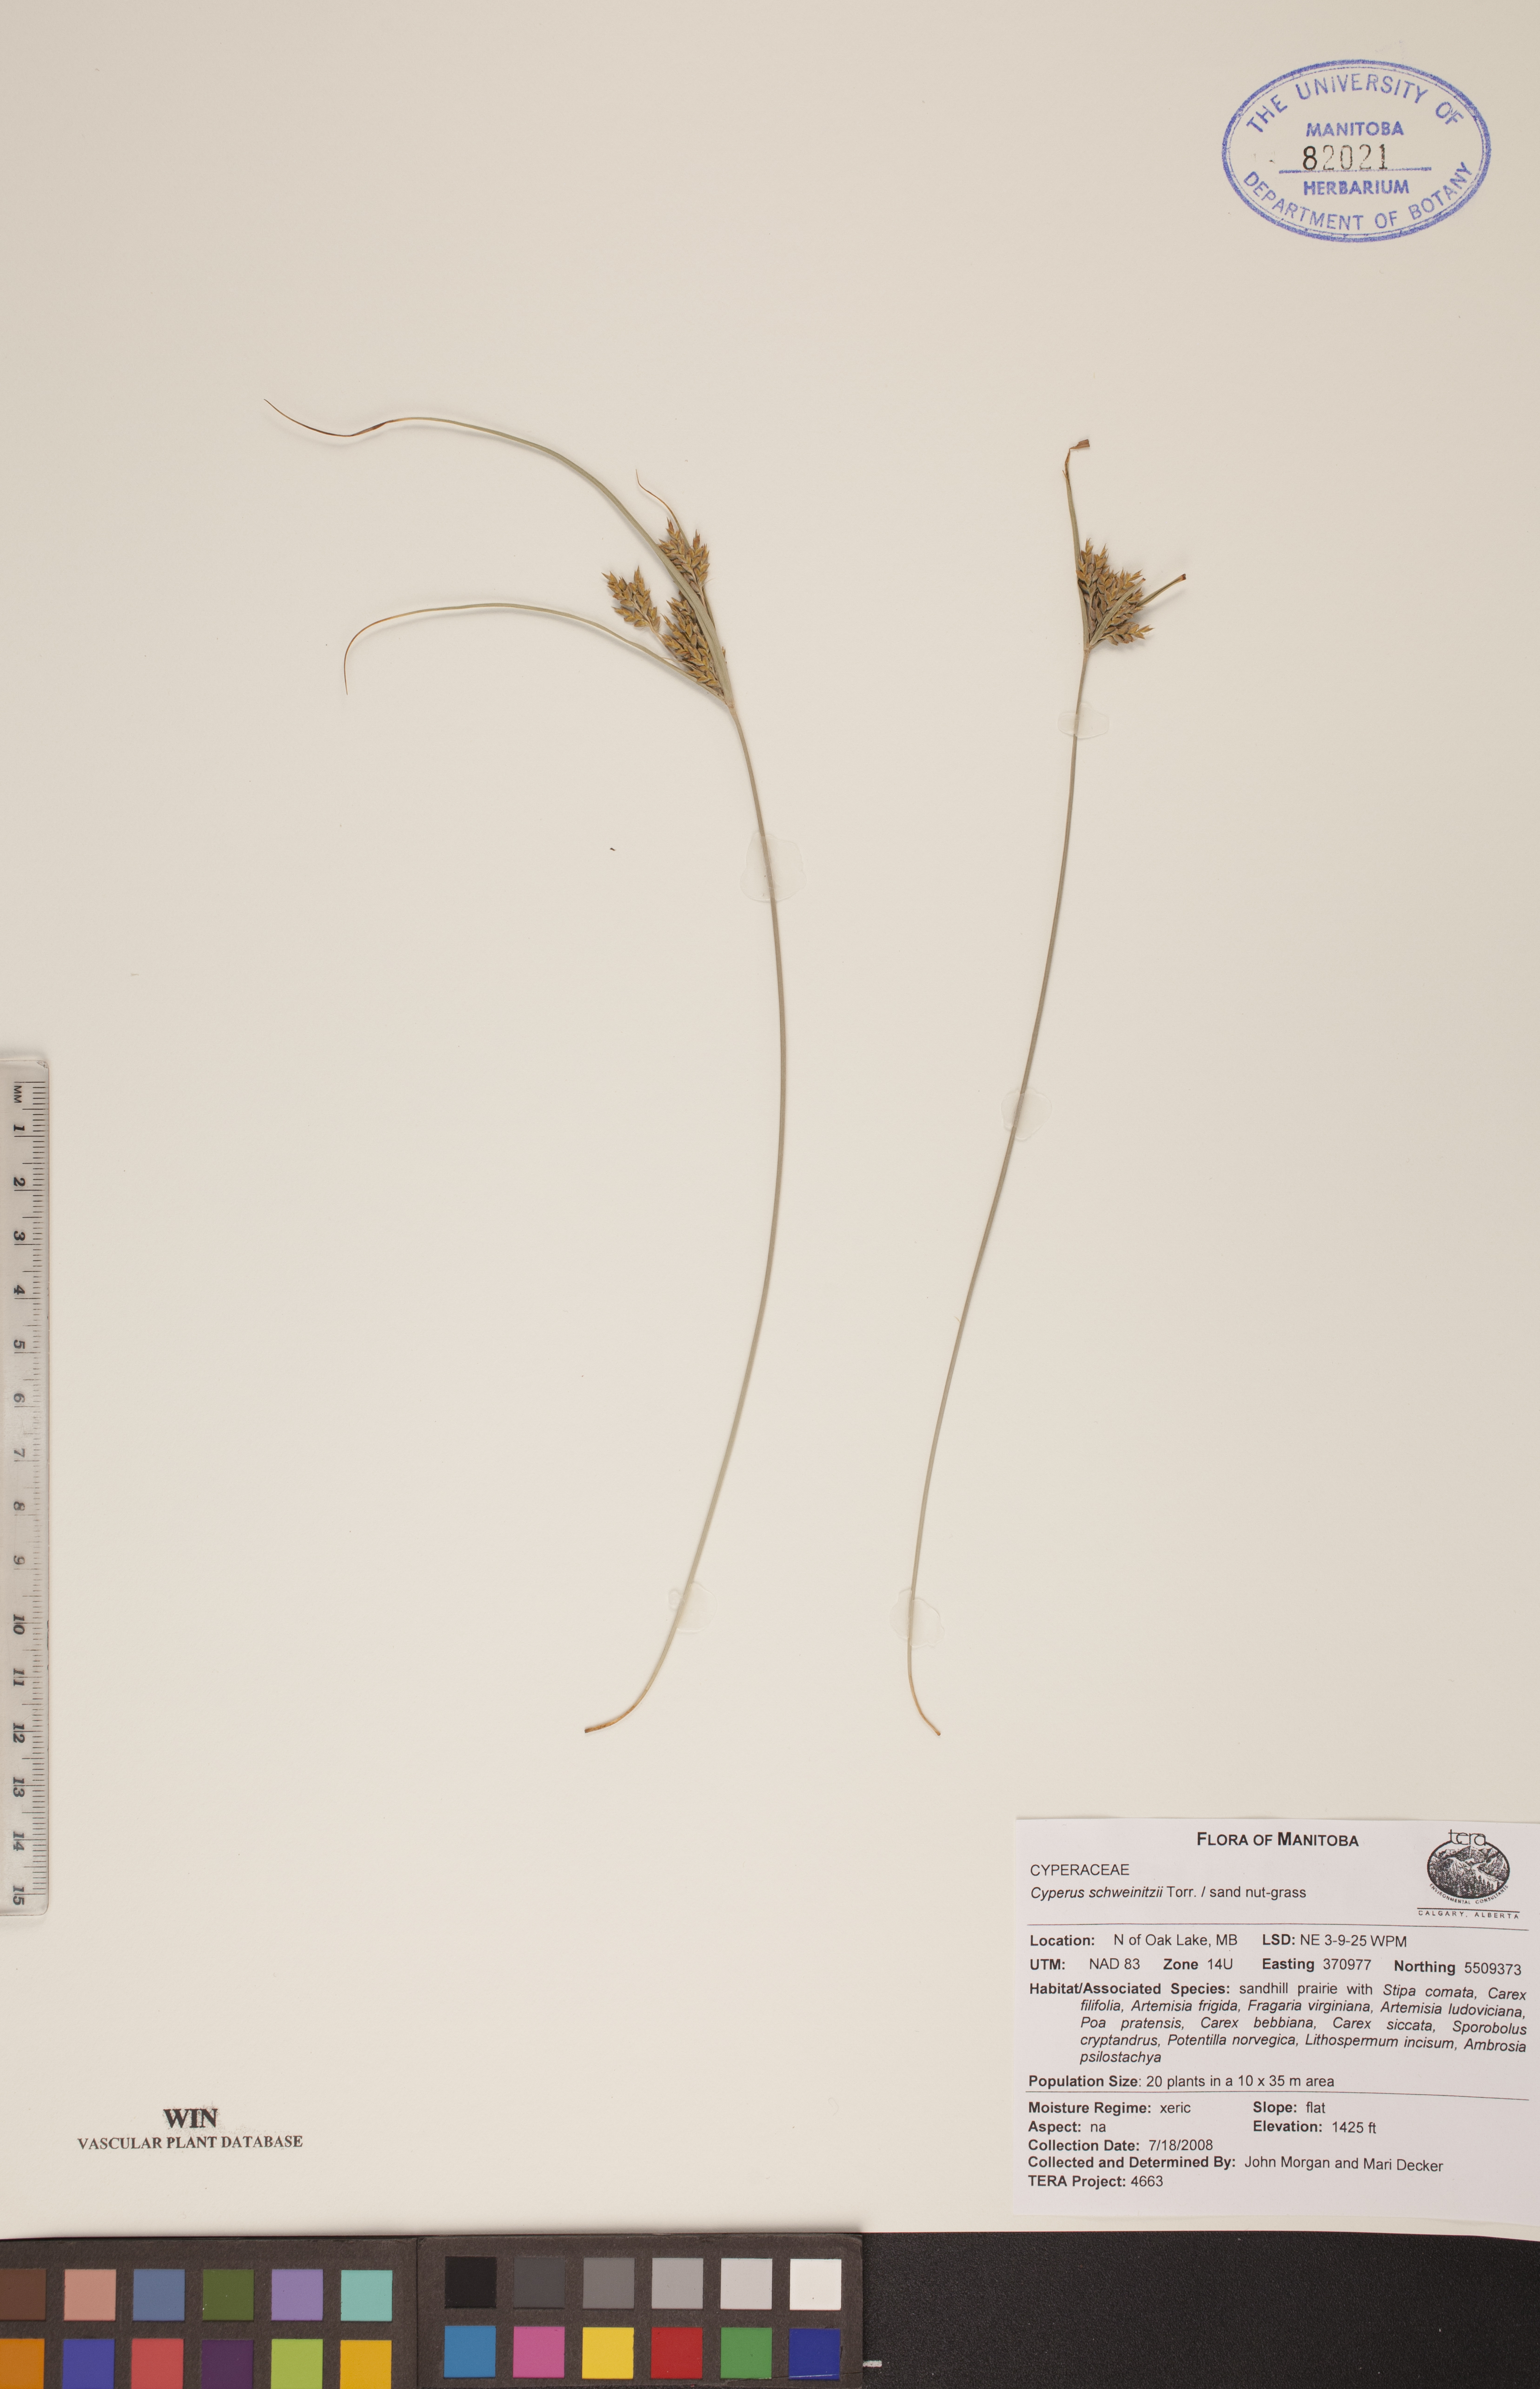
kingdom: Plantae
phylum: Tracheophyta
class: Liliopsida
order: Poales
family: Cyperaceae
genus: Cyperus
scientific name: Cyperus schweinitzii
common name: Schweinitz's cyperus
